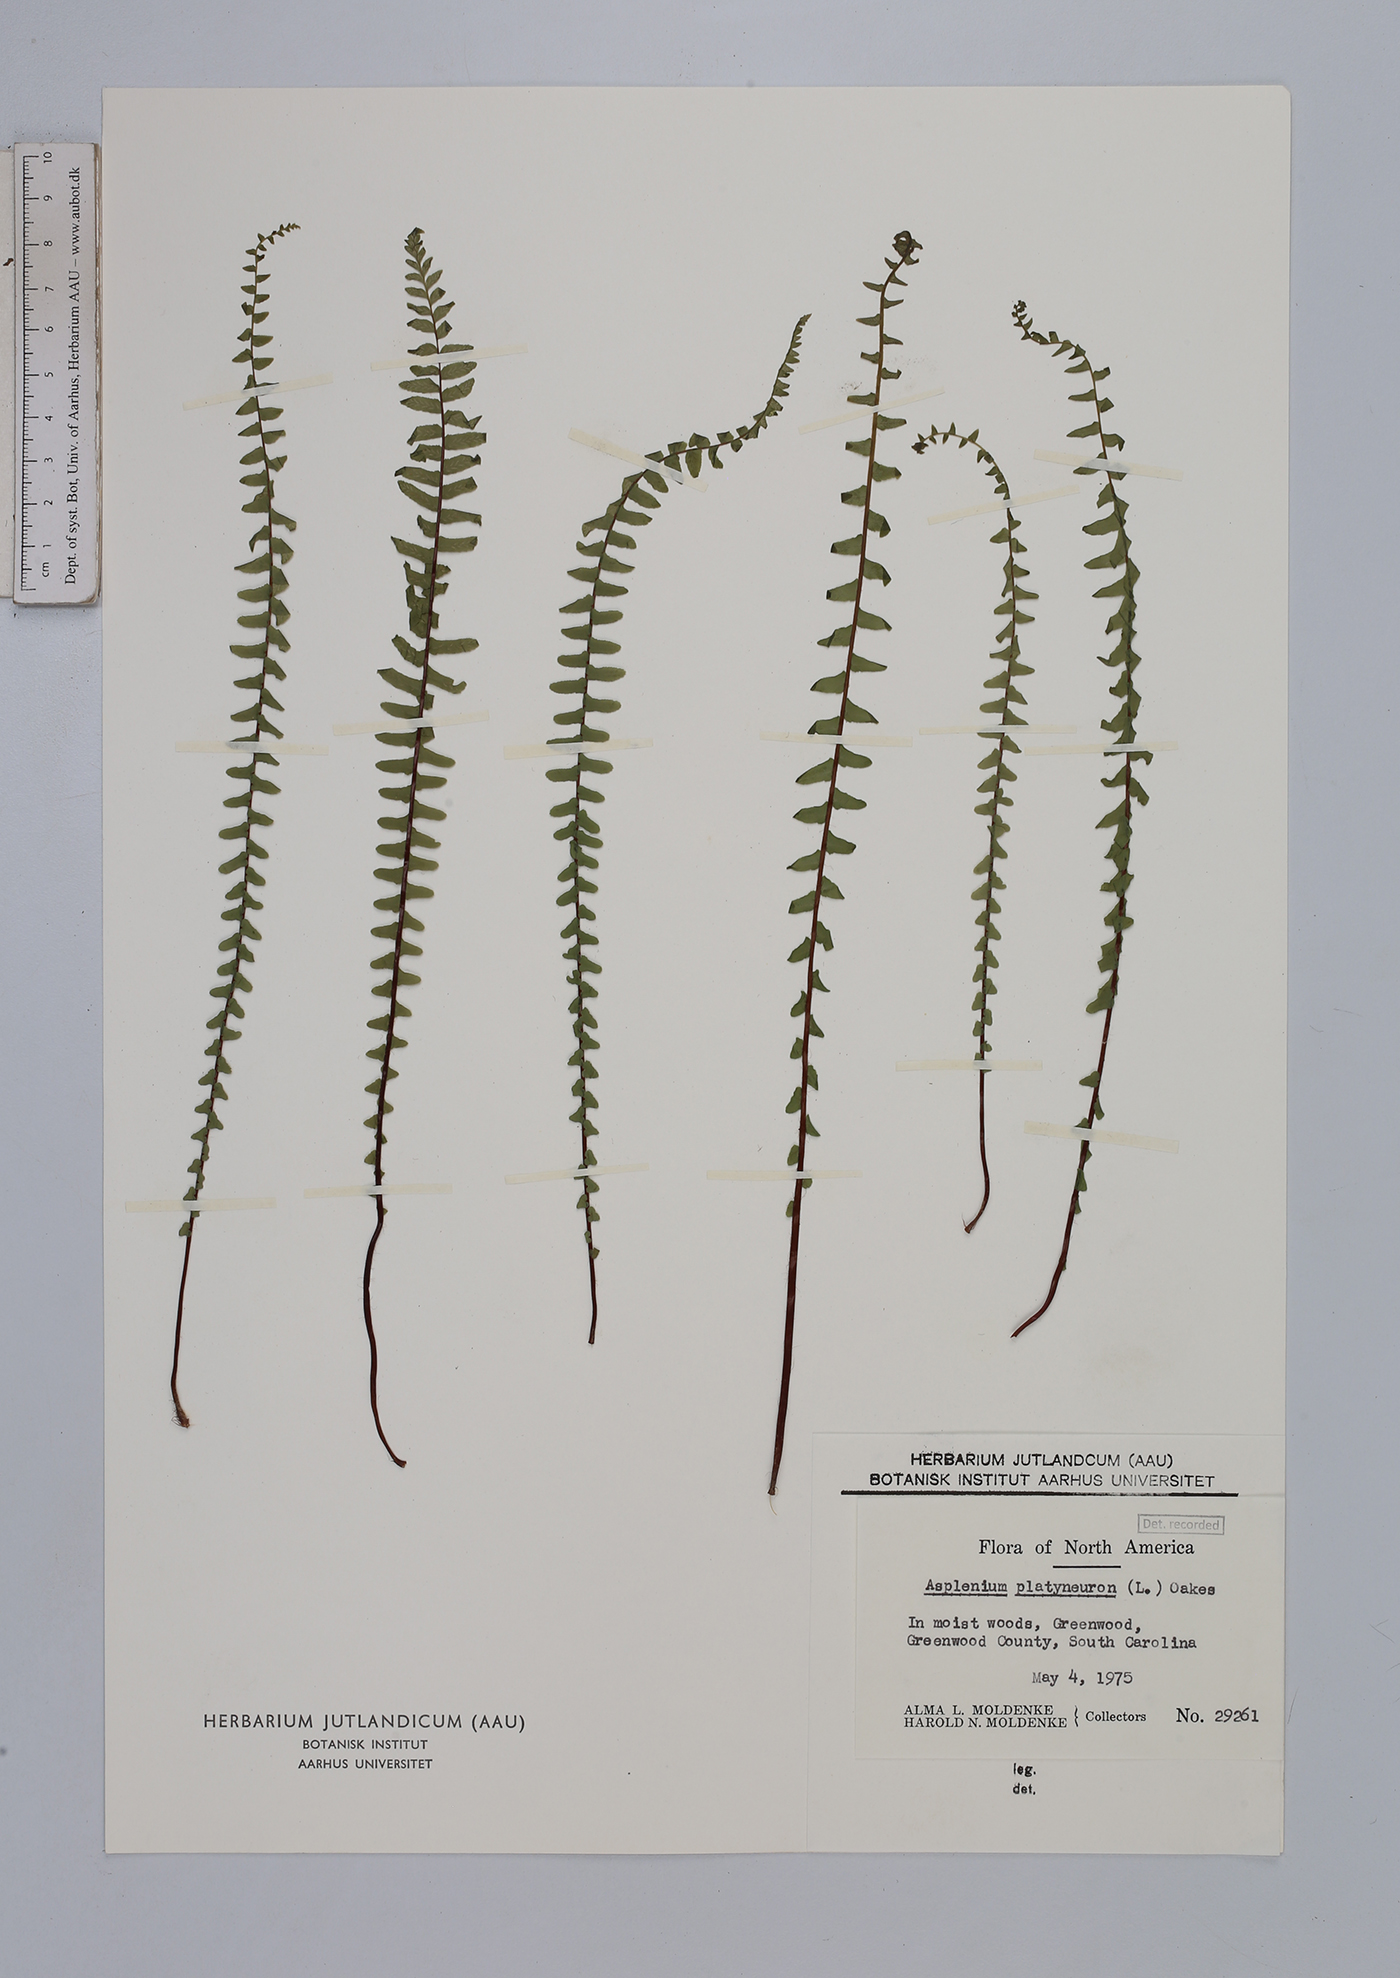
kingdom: Plantae
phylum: Tracheophyta
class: Polypodiopsida
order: Polypodiales
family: Aspleniaceae
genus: Asplenium
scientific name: Asplenium platyneuron
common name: Ebony spleenwort
